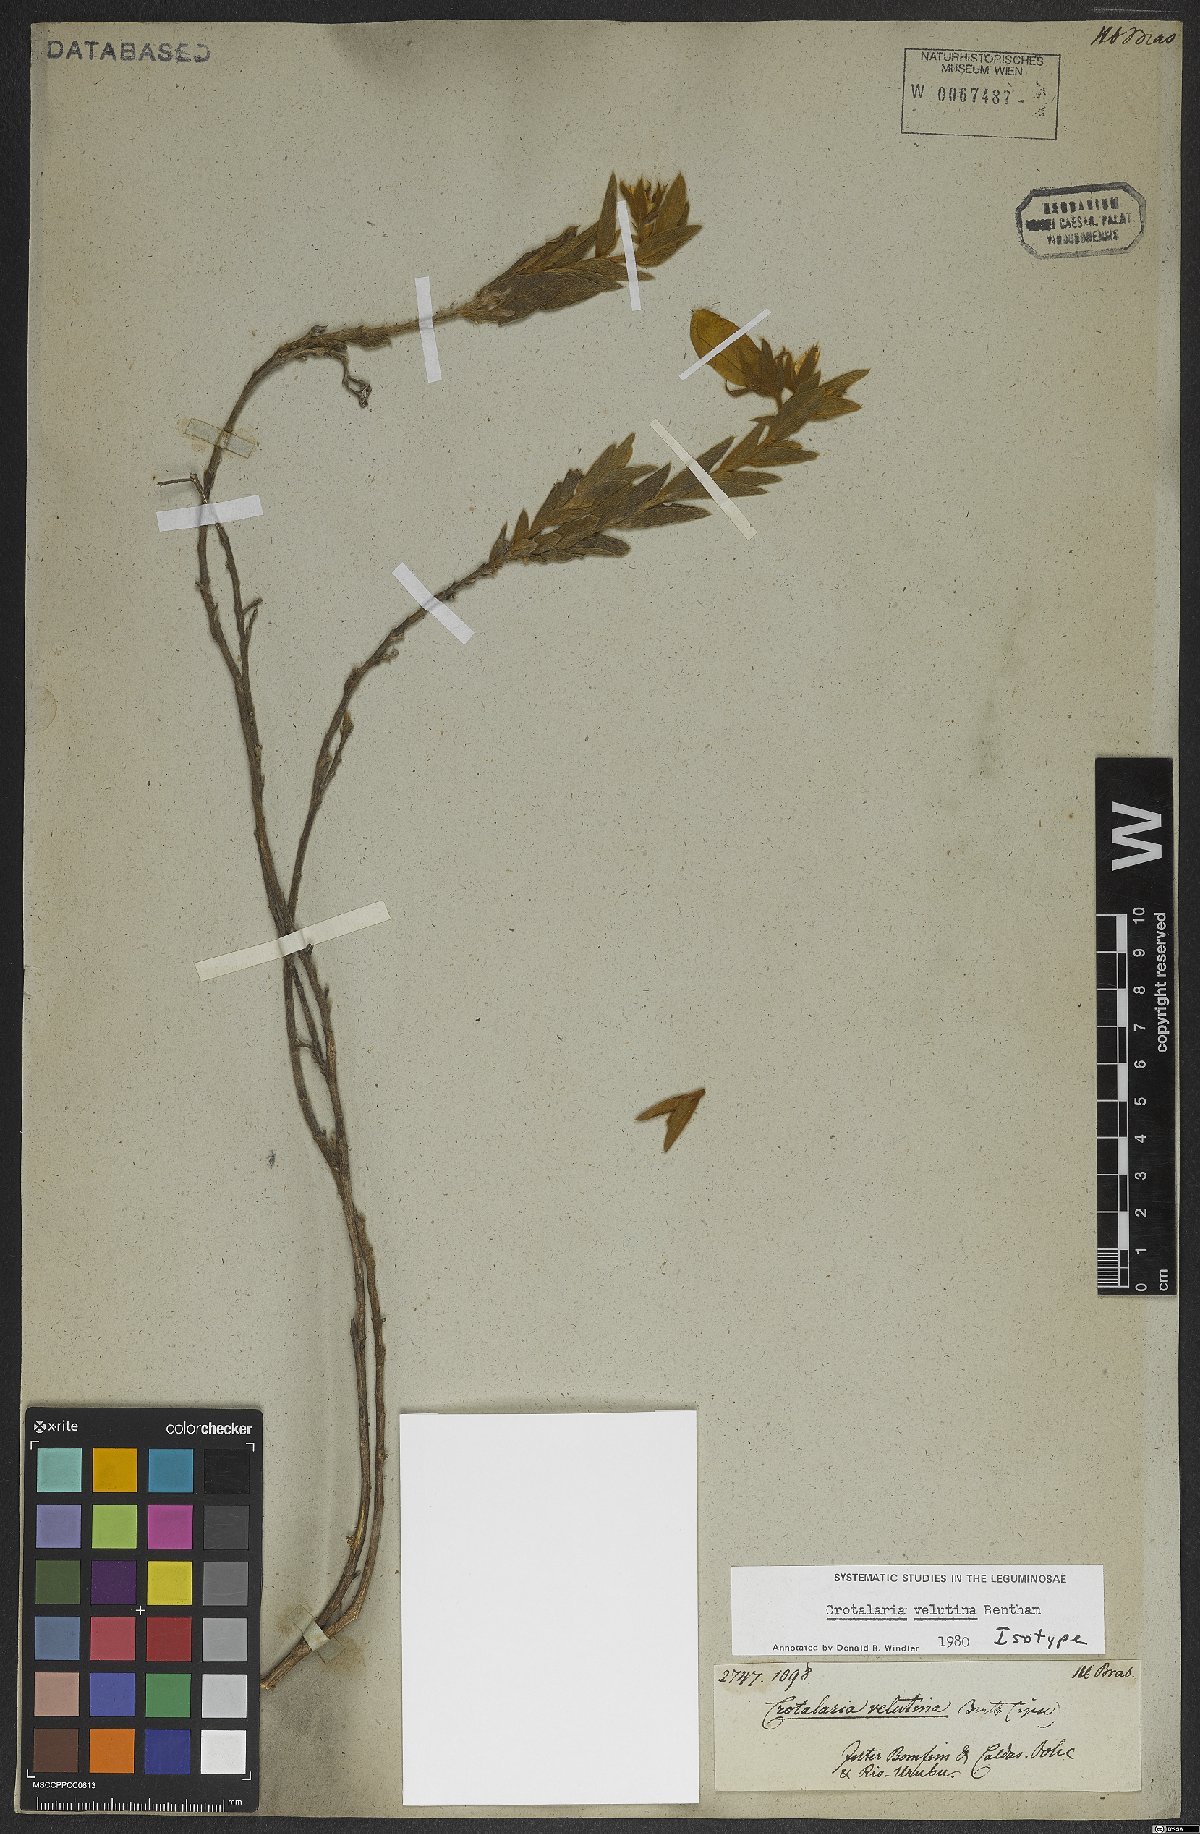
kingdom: Plantae
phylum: Tracheophyta
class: Magnoliopsida
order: Fabales
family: Fabaceae
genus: Crotalaria
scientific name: Crotalaria velutina
